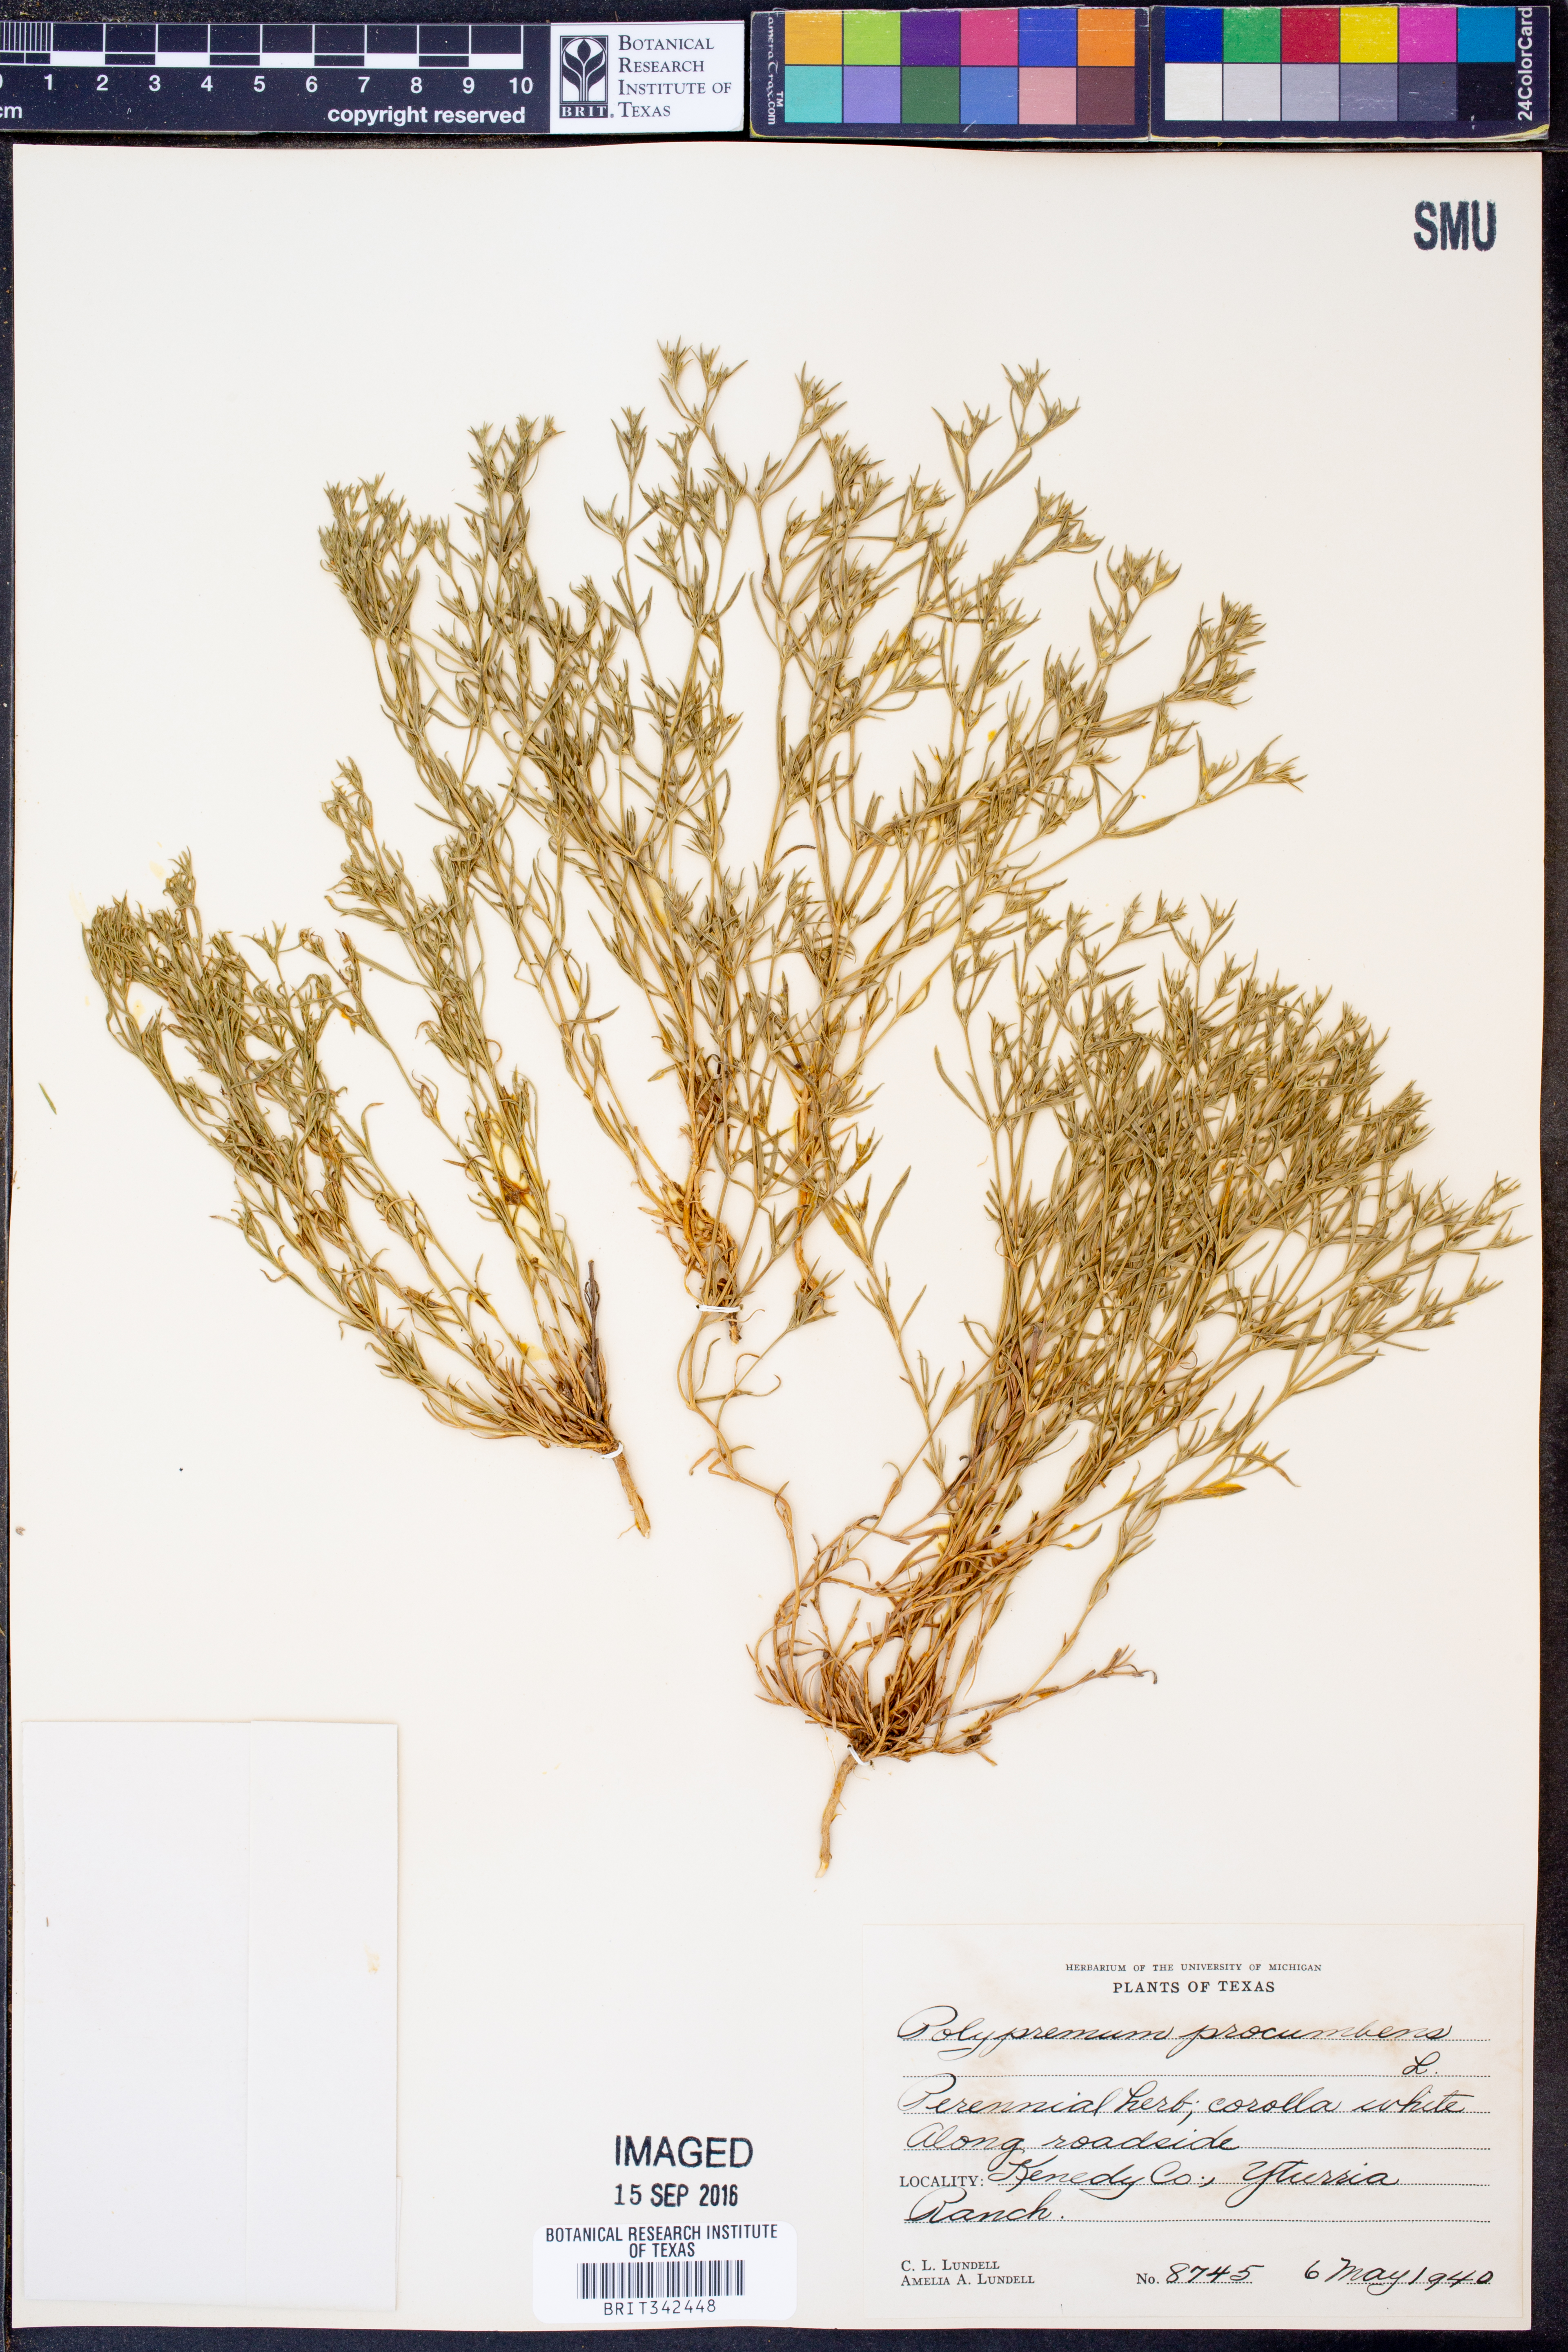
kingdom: Plantae
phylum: Tracheophyta
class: Magnoliopsida
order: Lamiales
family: Tetrachondraceae
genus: Polypremum
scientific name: Polypremum procumbens
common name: Juniper-leaf
